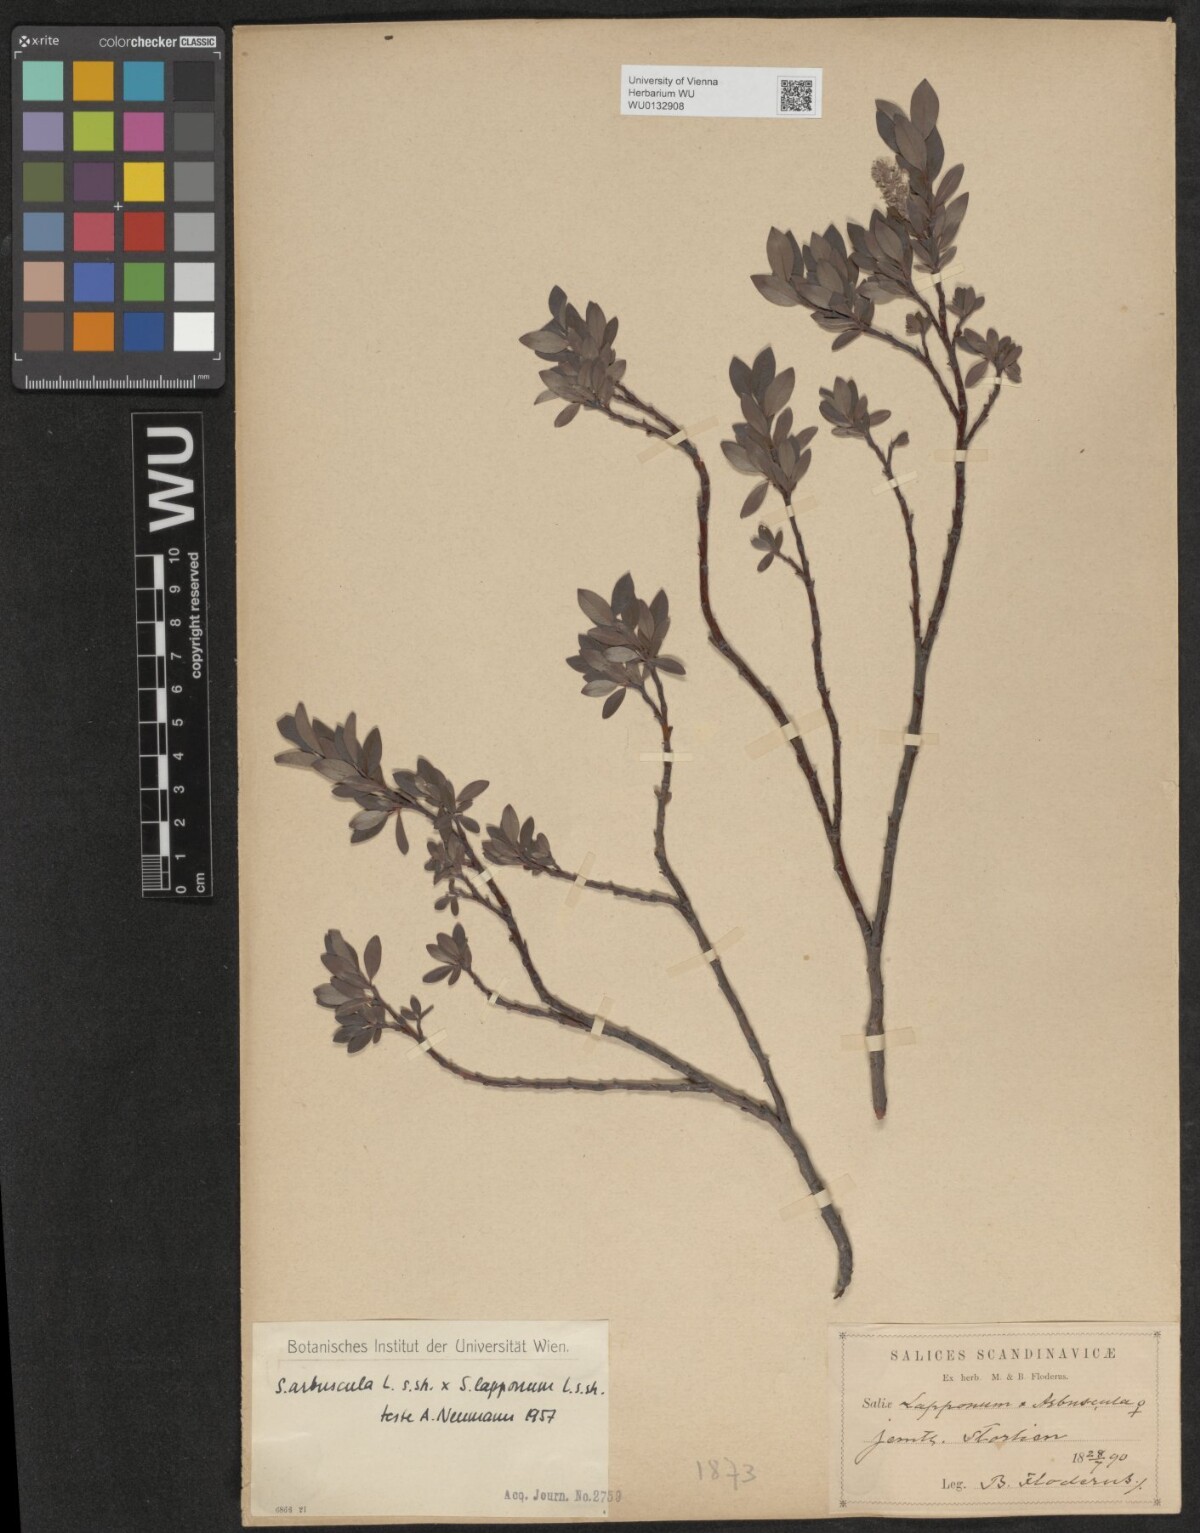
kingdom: Plantae
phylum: Tracheophyta
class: Magnoliopsida
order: Malpighiales
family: Salicaceae
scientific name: Salicaceae
